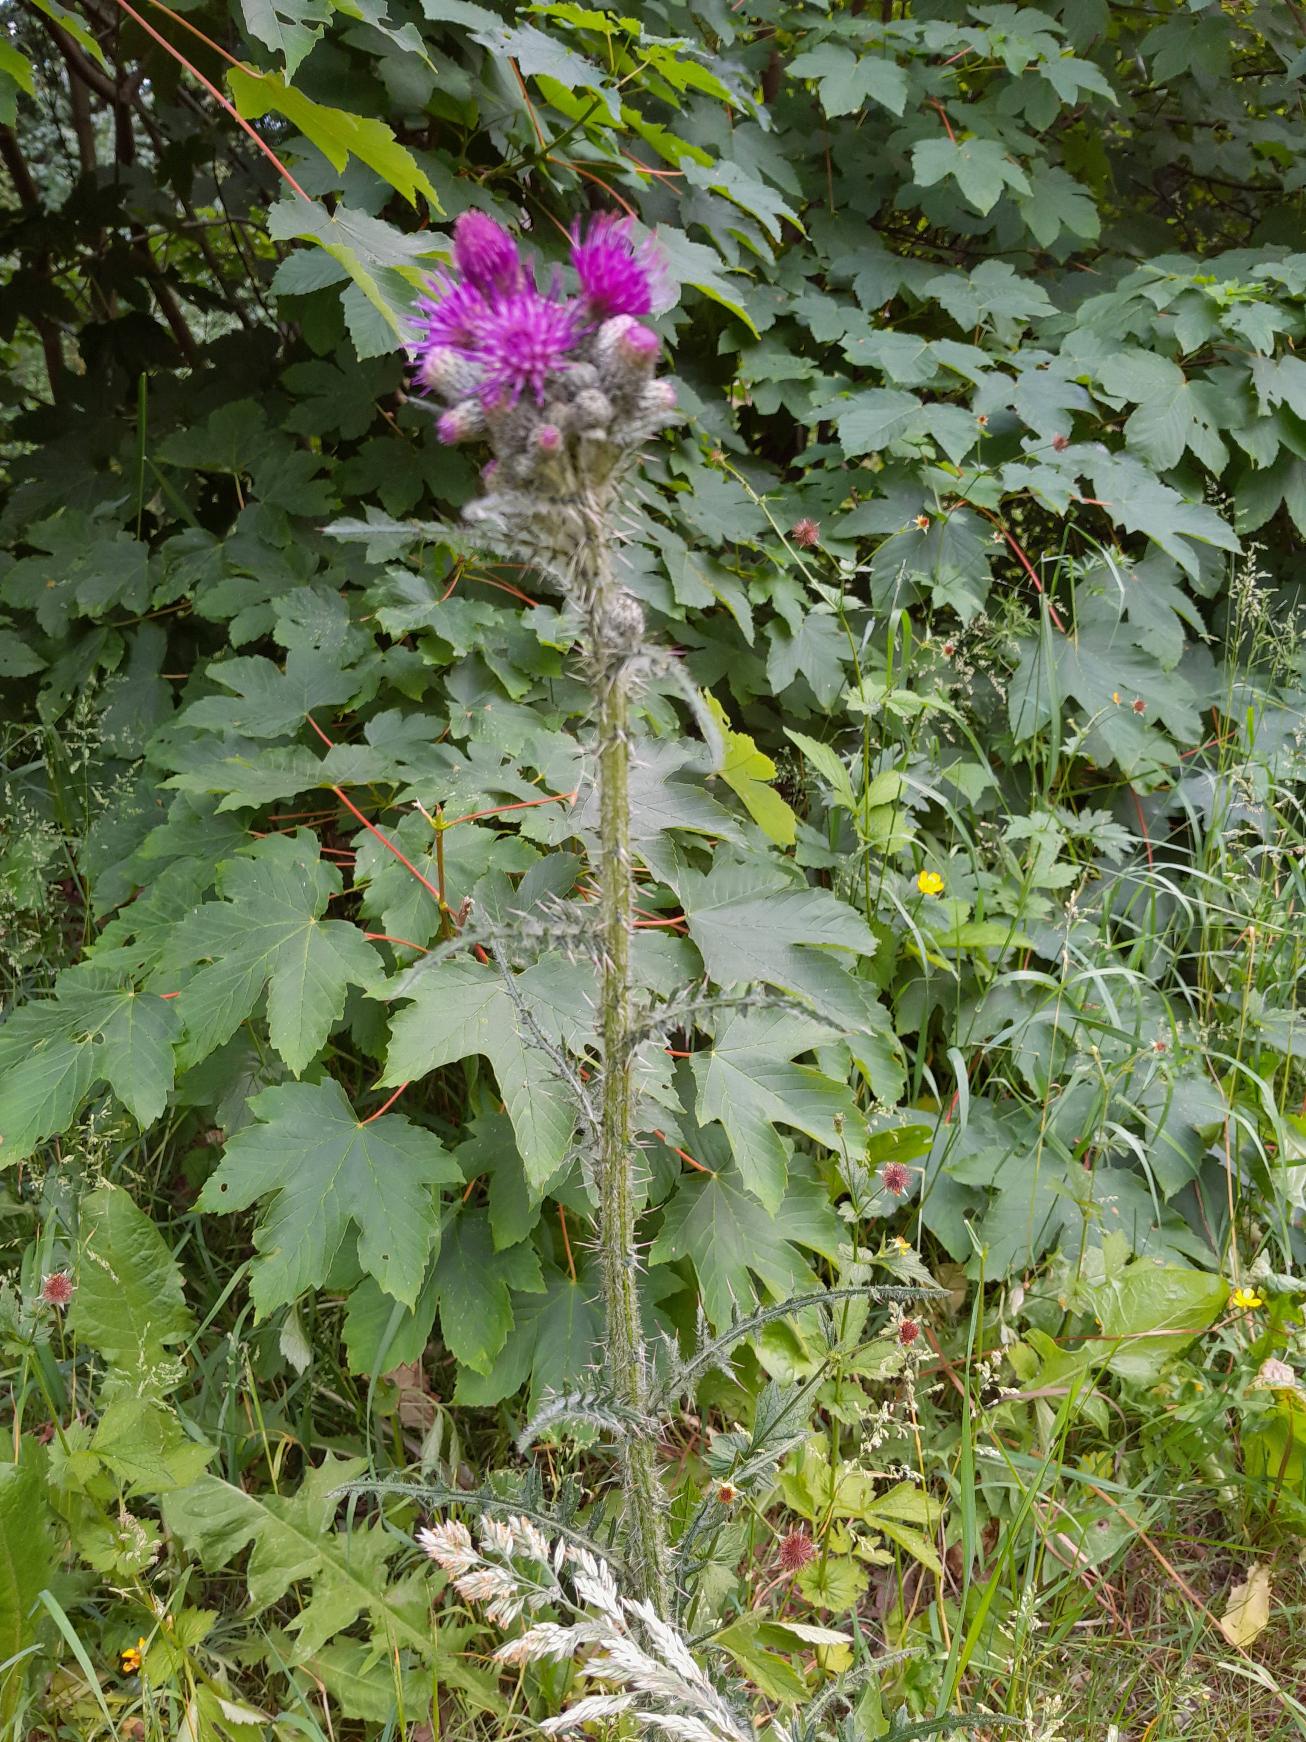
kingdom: Plantae
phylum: Tracheophyta
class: Magnoliopsida
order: Asterales
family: Asteraceae
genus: Cirsium
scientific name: Cirsium palustre
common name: Kær-tidsel
